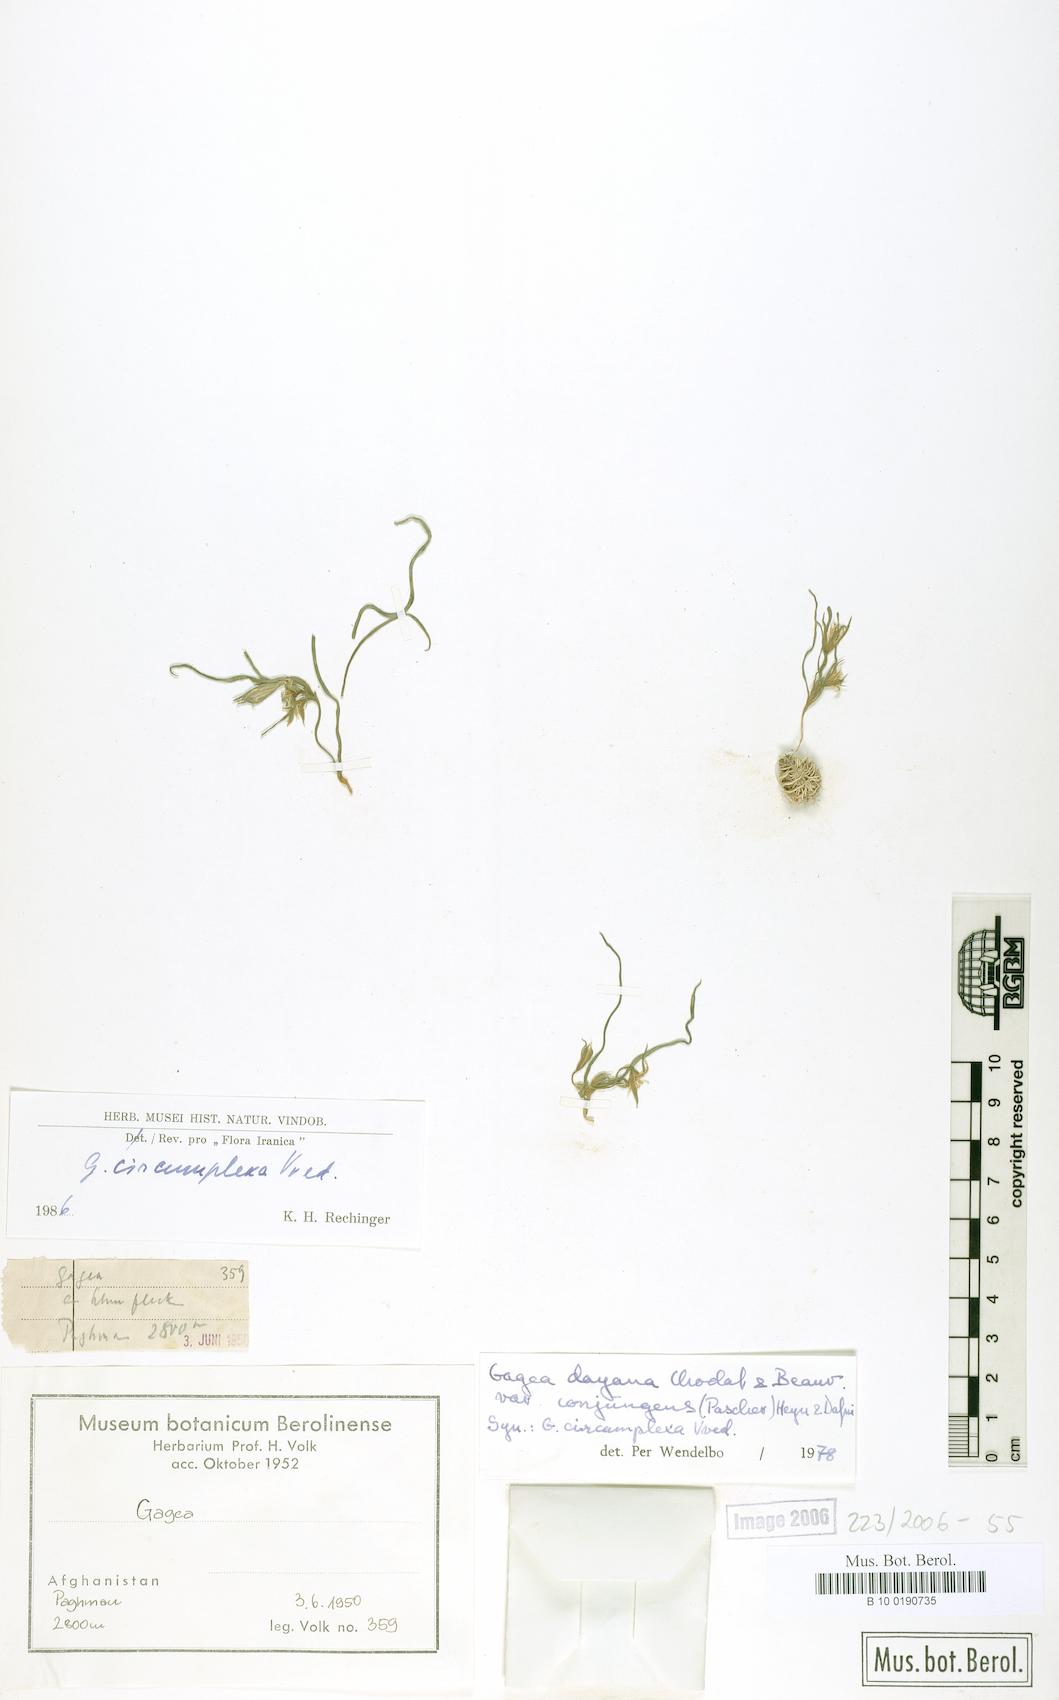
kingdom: Plantae
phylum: Tracheophyta
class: Liliopsida
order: Liliales
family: Liliaceae
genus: Gagea
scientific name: Gagea circumplexa
